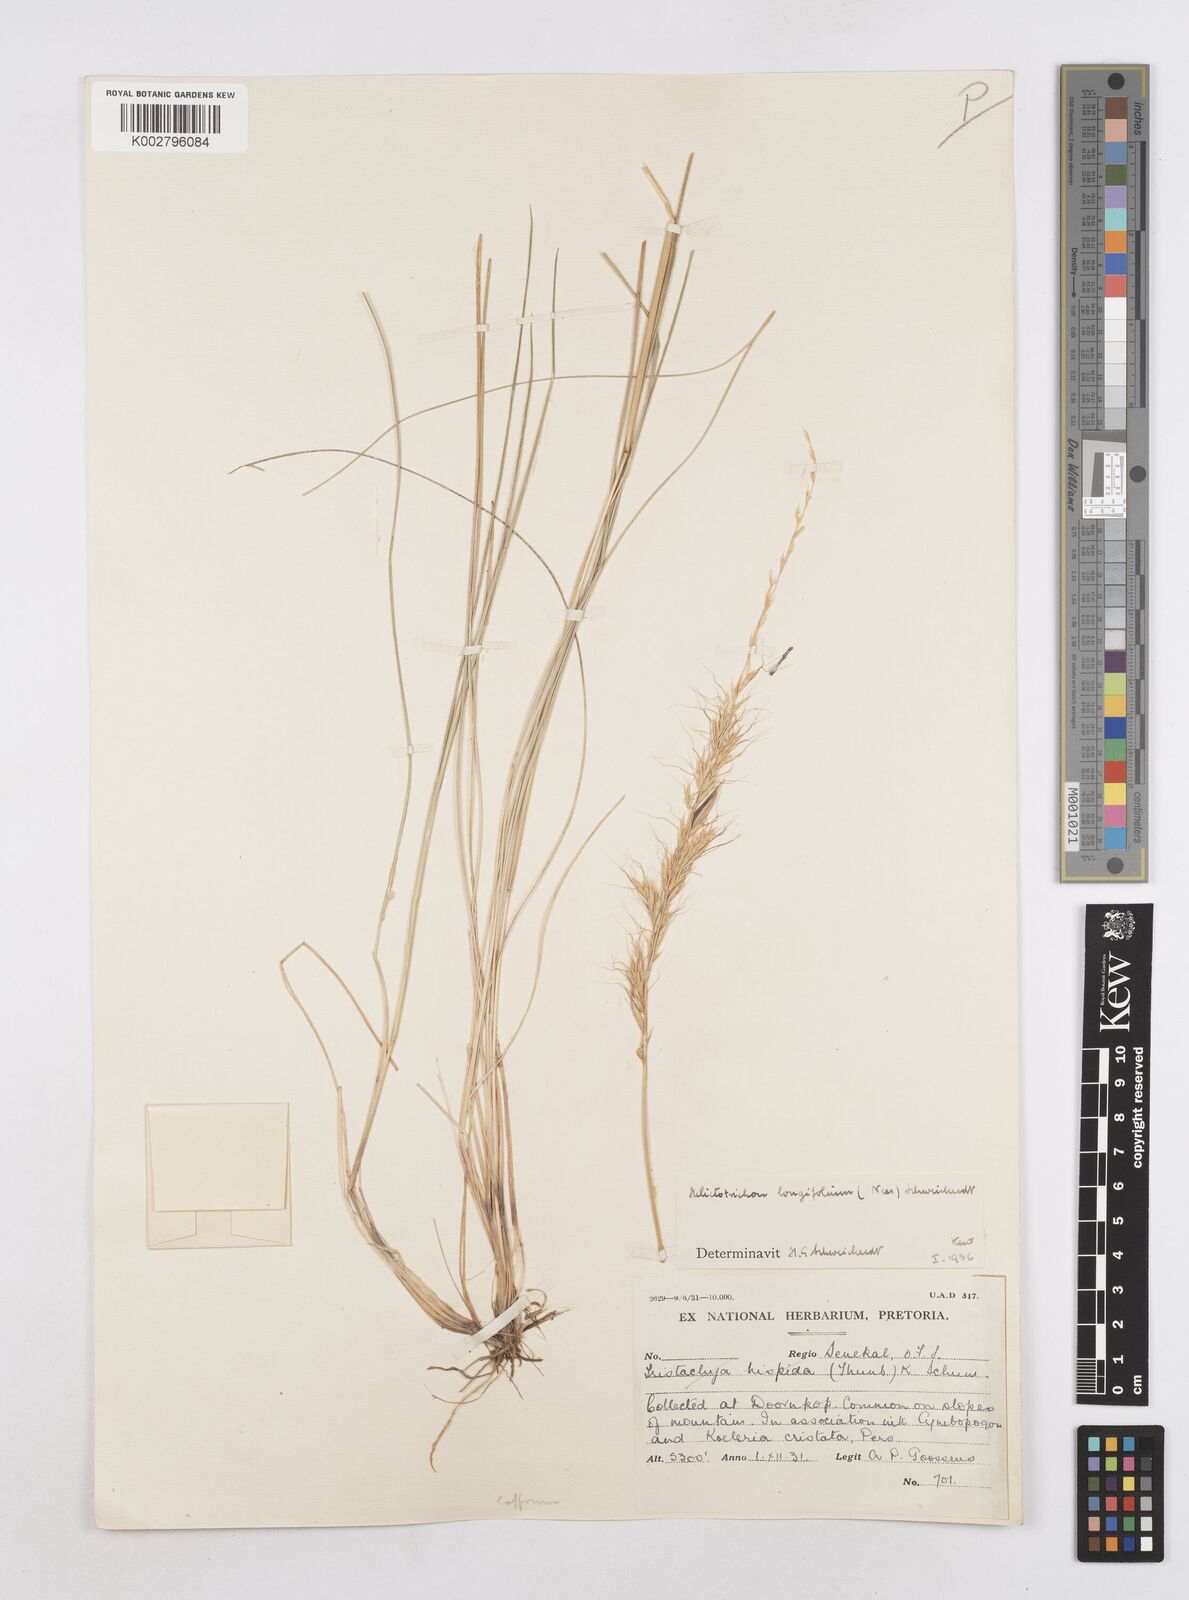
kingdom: Plantae
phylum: Tracheophyta
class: Liliopsida
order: Poales
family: Poaceae
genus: Trisetopsis
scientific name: Trisetopsis longifolia
